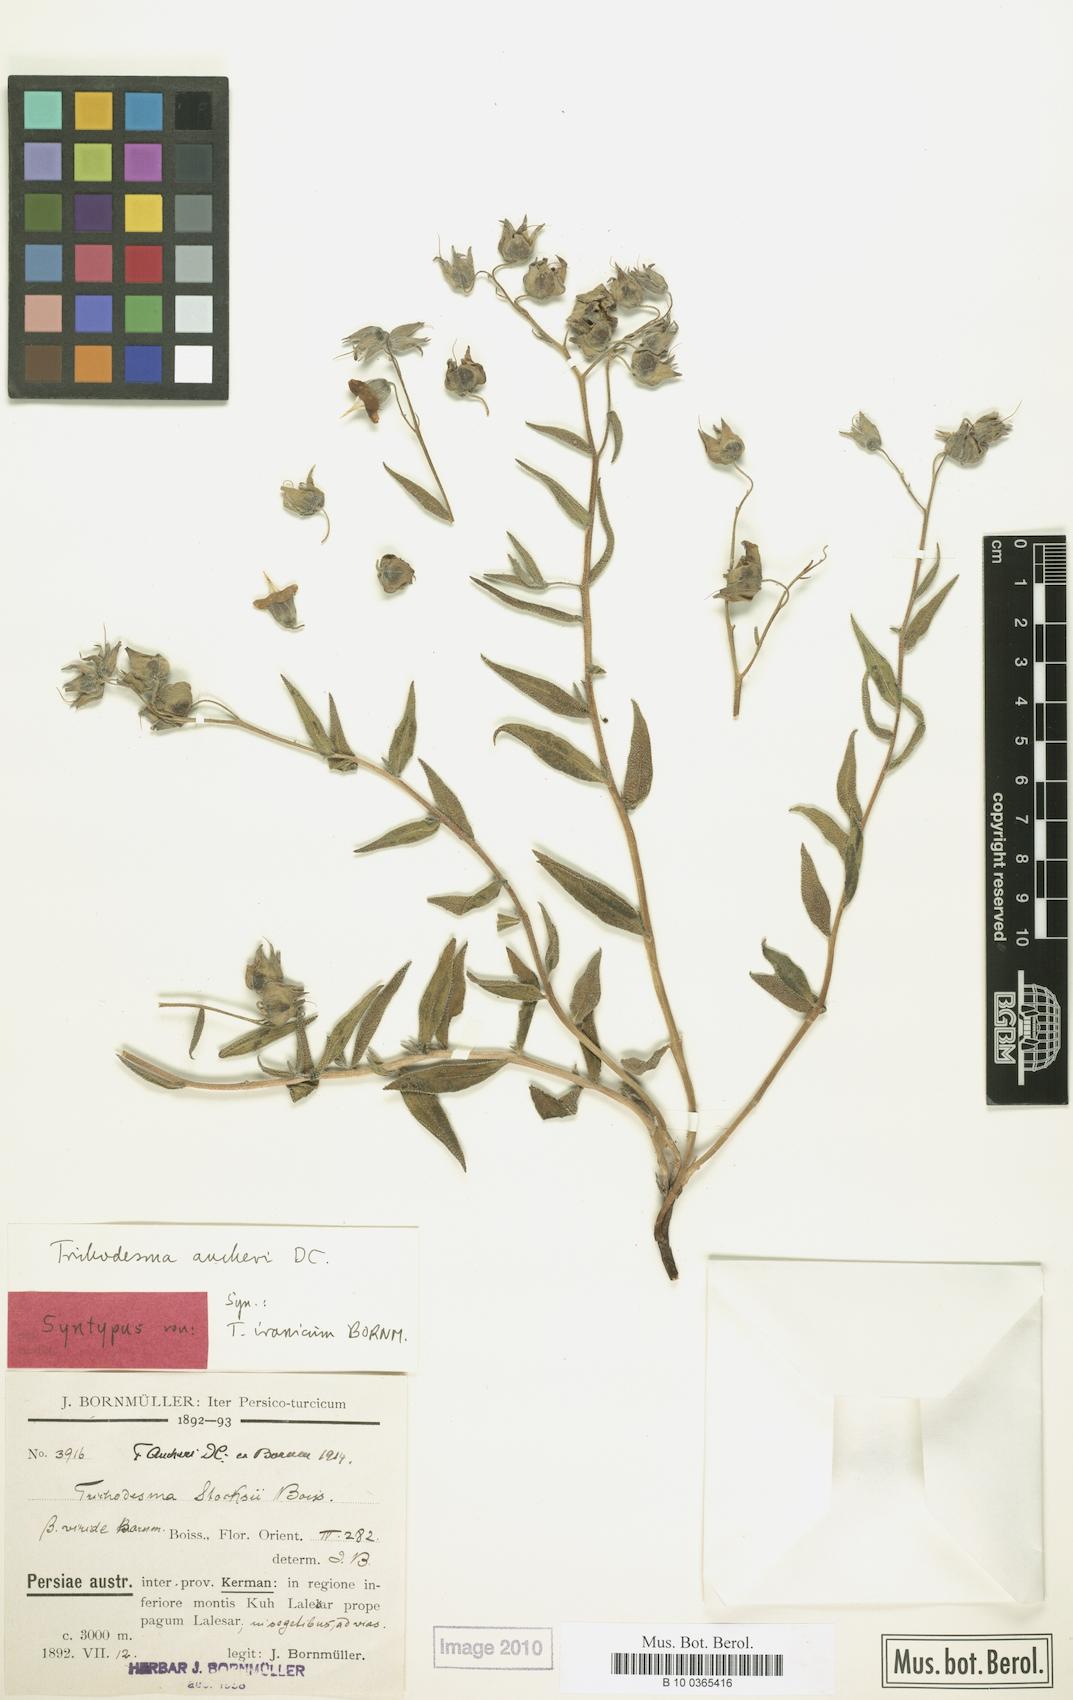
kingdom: Plantae
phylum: Tracheophyta
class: Magnoliopsida
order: Boraginales
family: Boraginaceae
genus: Trichodesma
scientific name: Trichodesma aucheri
